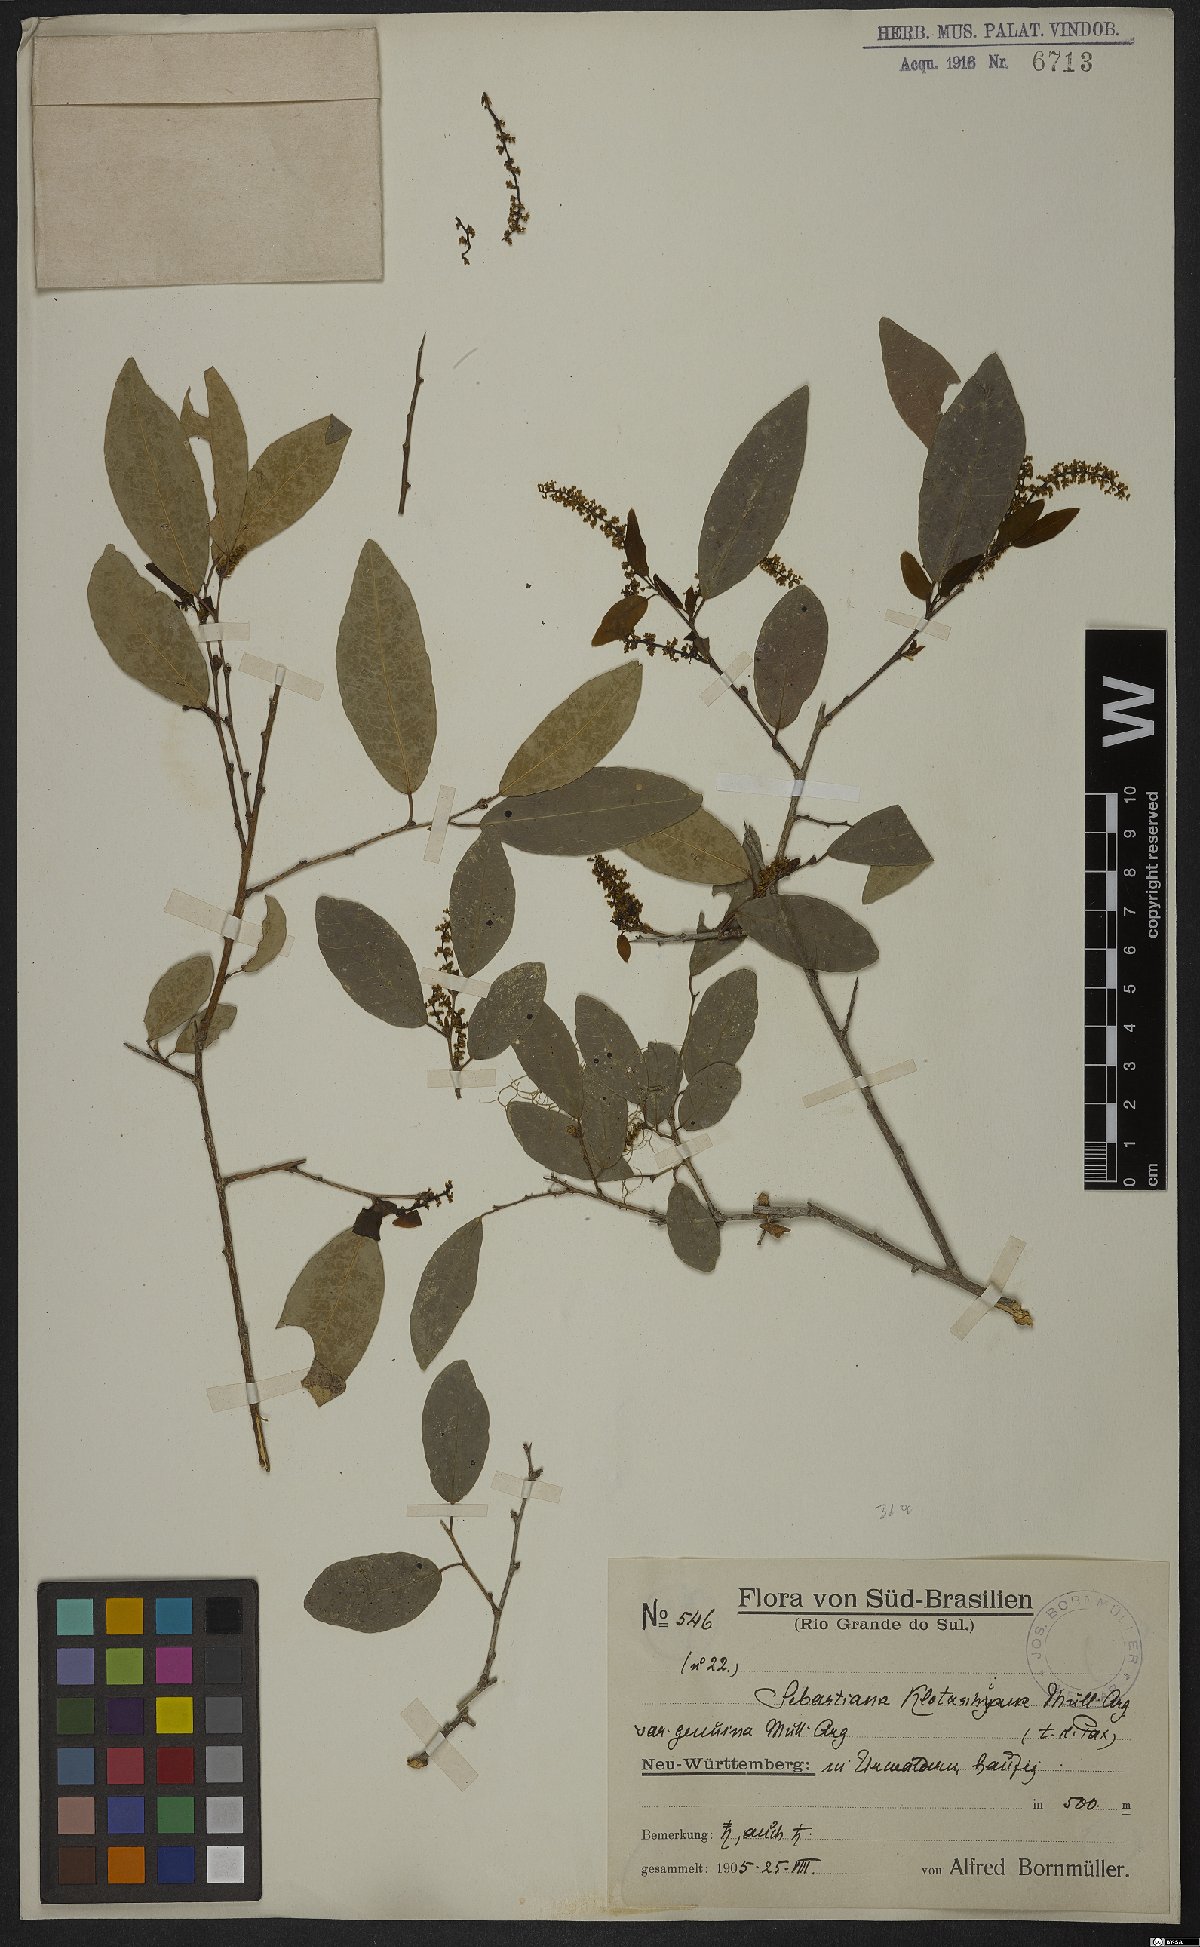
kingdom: Plantae
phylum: Tracheophyta
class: Magnoliopsida
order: Malpighiales
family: Euphorbiaceae
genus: Sebastiania
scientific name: Sebastiania klotzschiana
